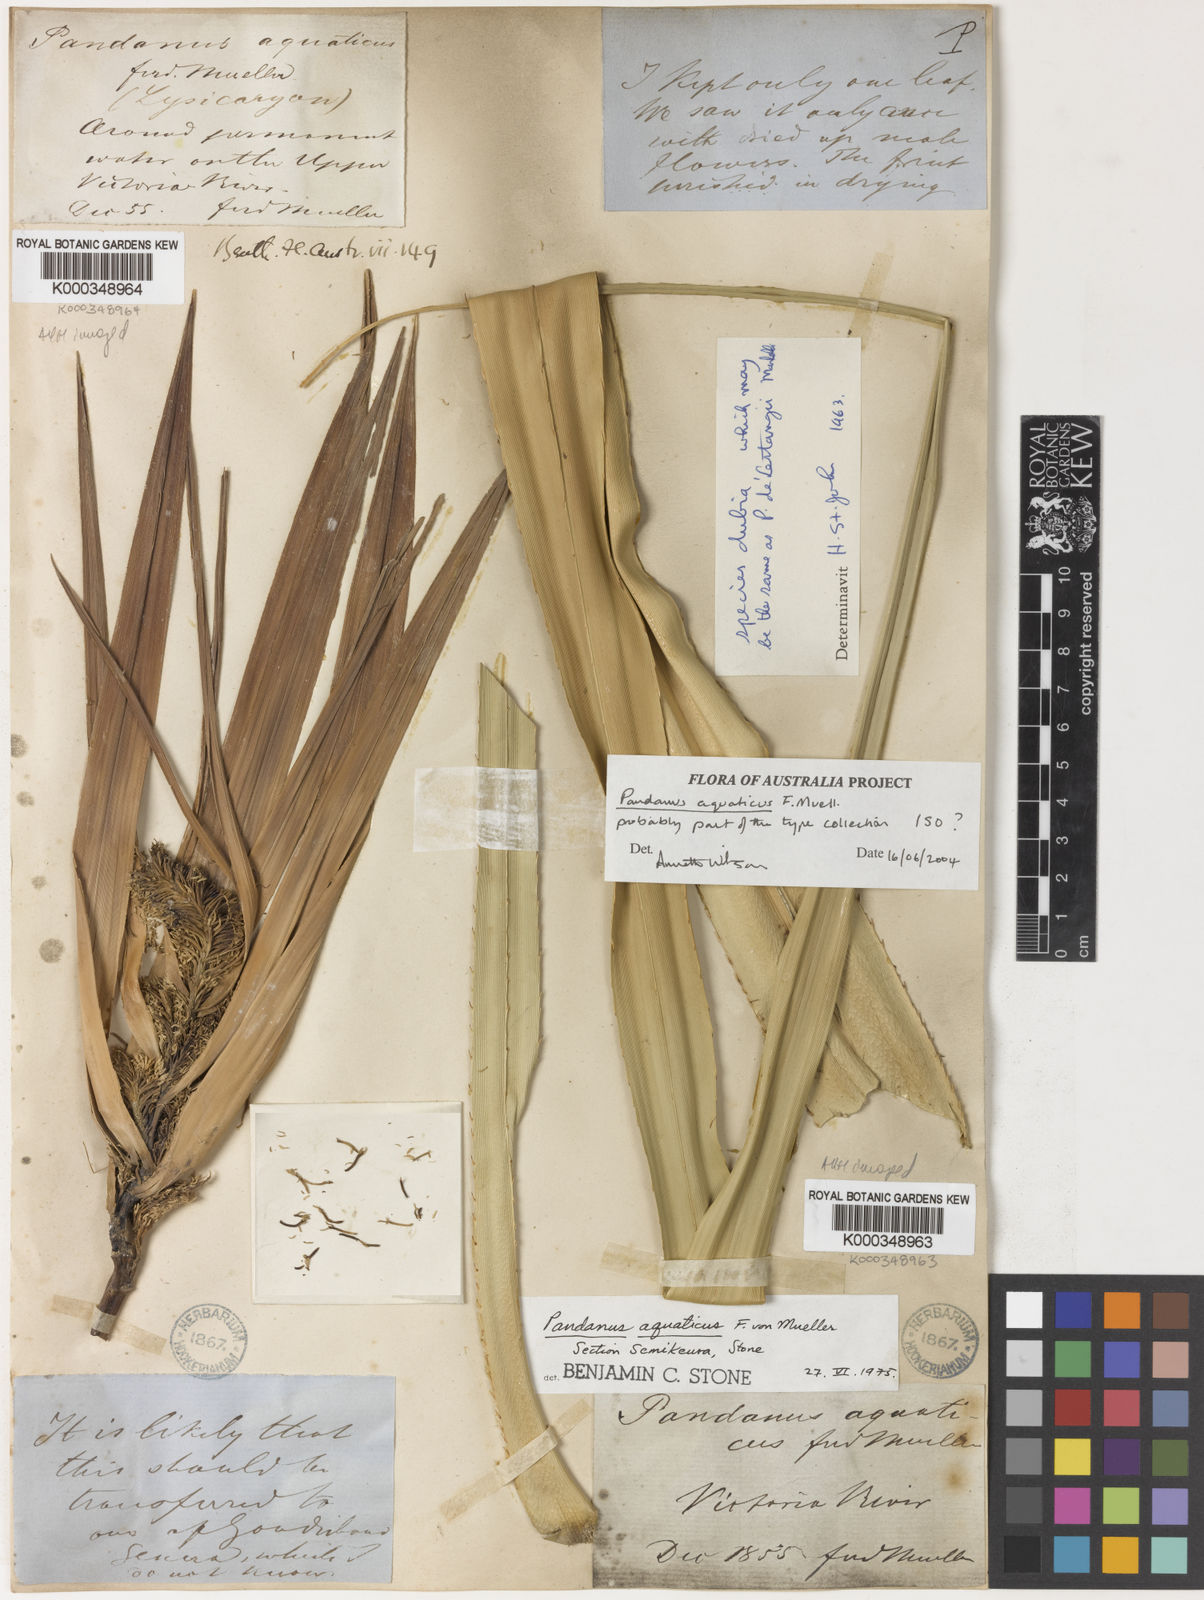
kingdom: Plantae
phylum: Tracheophyta
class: Liliopsida
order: Pandanales
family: Pandanaceae
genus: Pandanus
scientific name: Pandanus aquaticus
